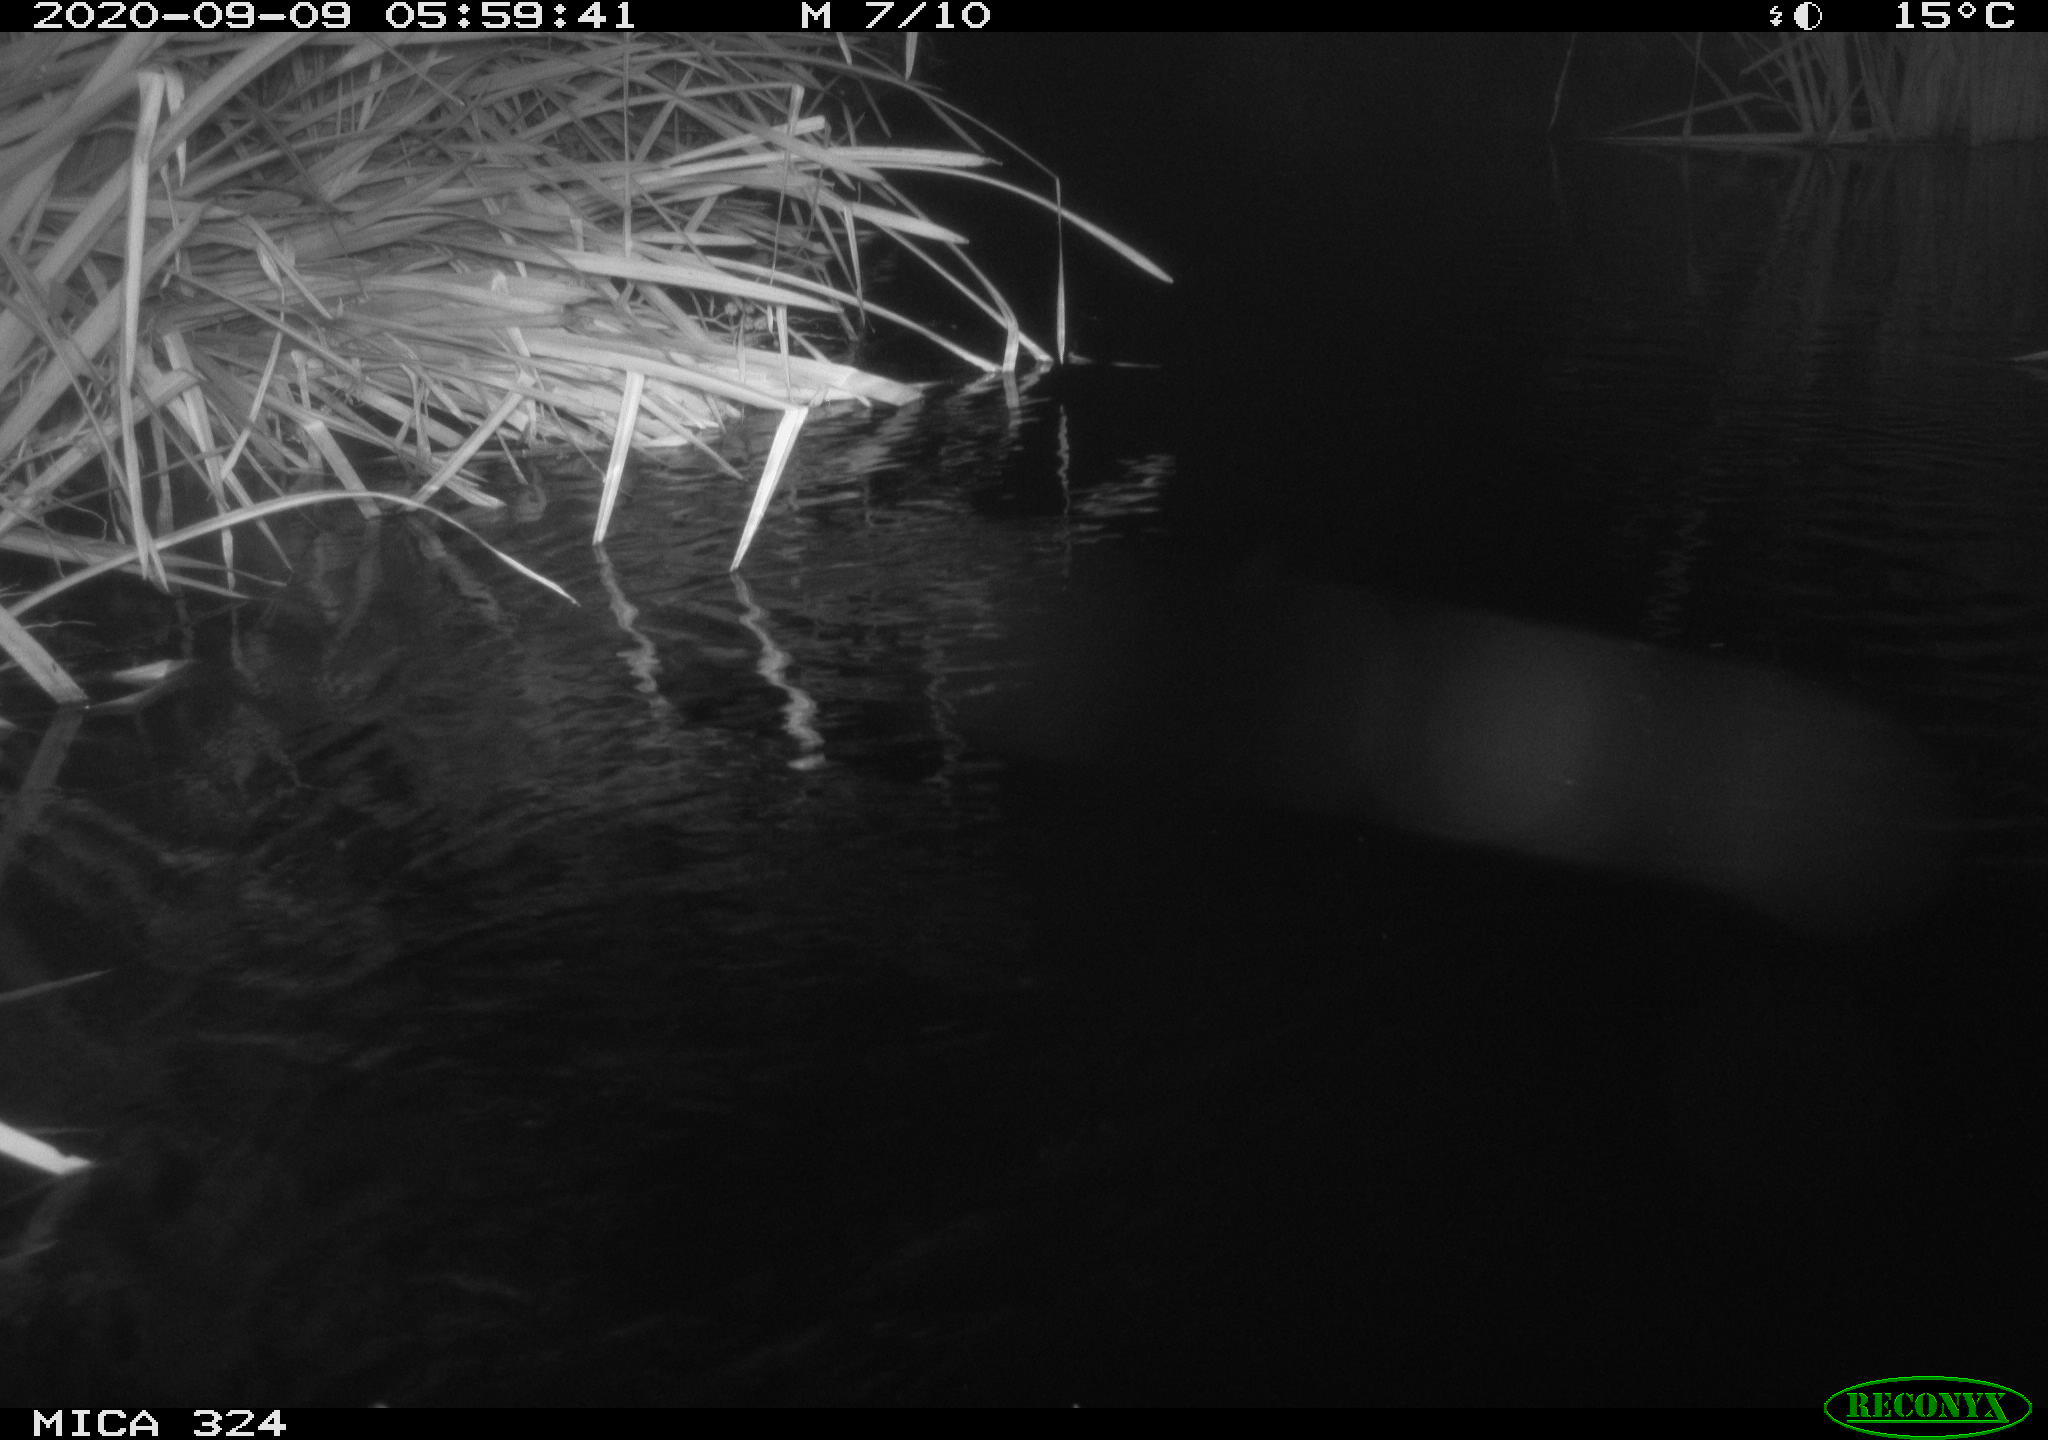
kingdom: Animalia
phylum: Chordata
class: Mammalia
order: Rodentia
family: Cricetidae
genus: Ondatra
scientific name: Ondatra zibethicus
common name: Muskrat
